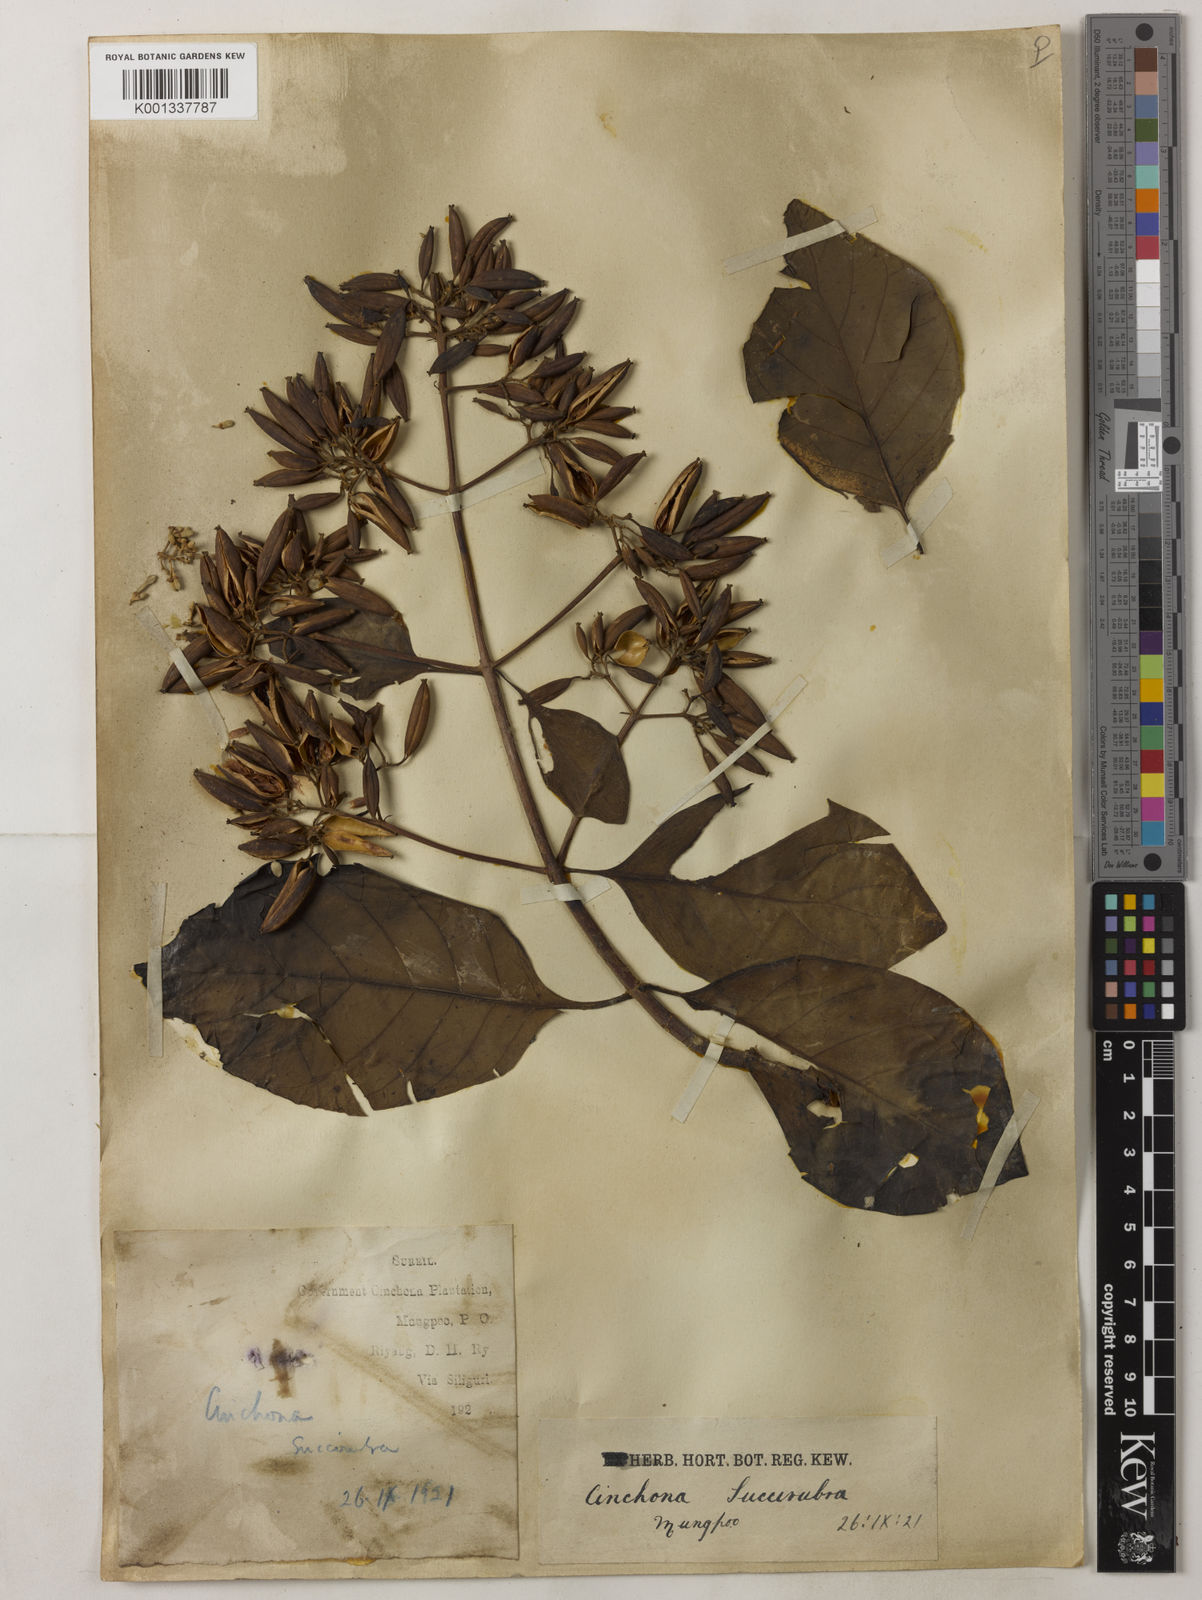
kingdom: Plantae
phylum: Tracheophyta
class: Magnoliopsida
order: Gentianales
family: Rubiaceae
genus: Cinchona
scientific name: Cinchona calisaya
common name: Ledgerbark
